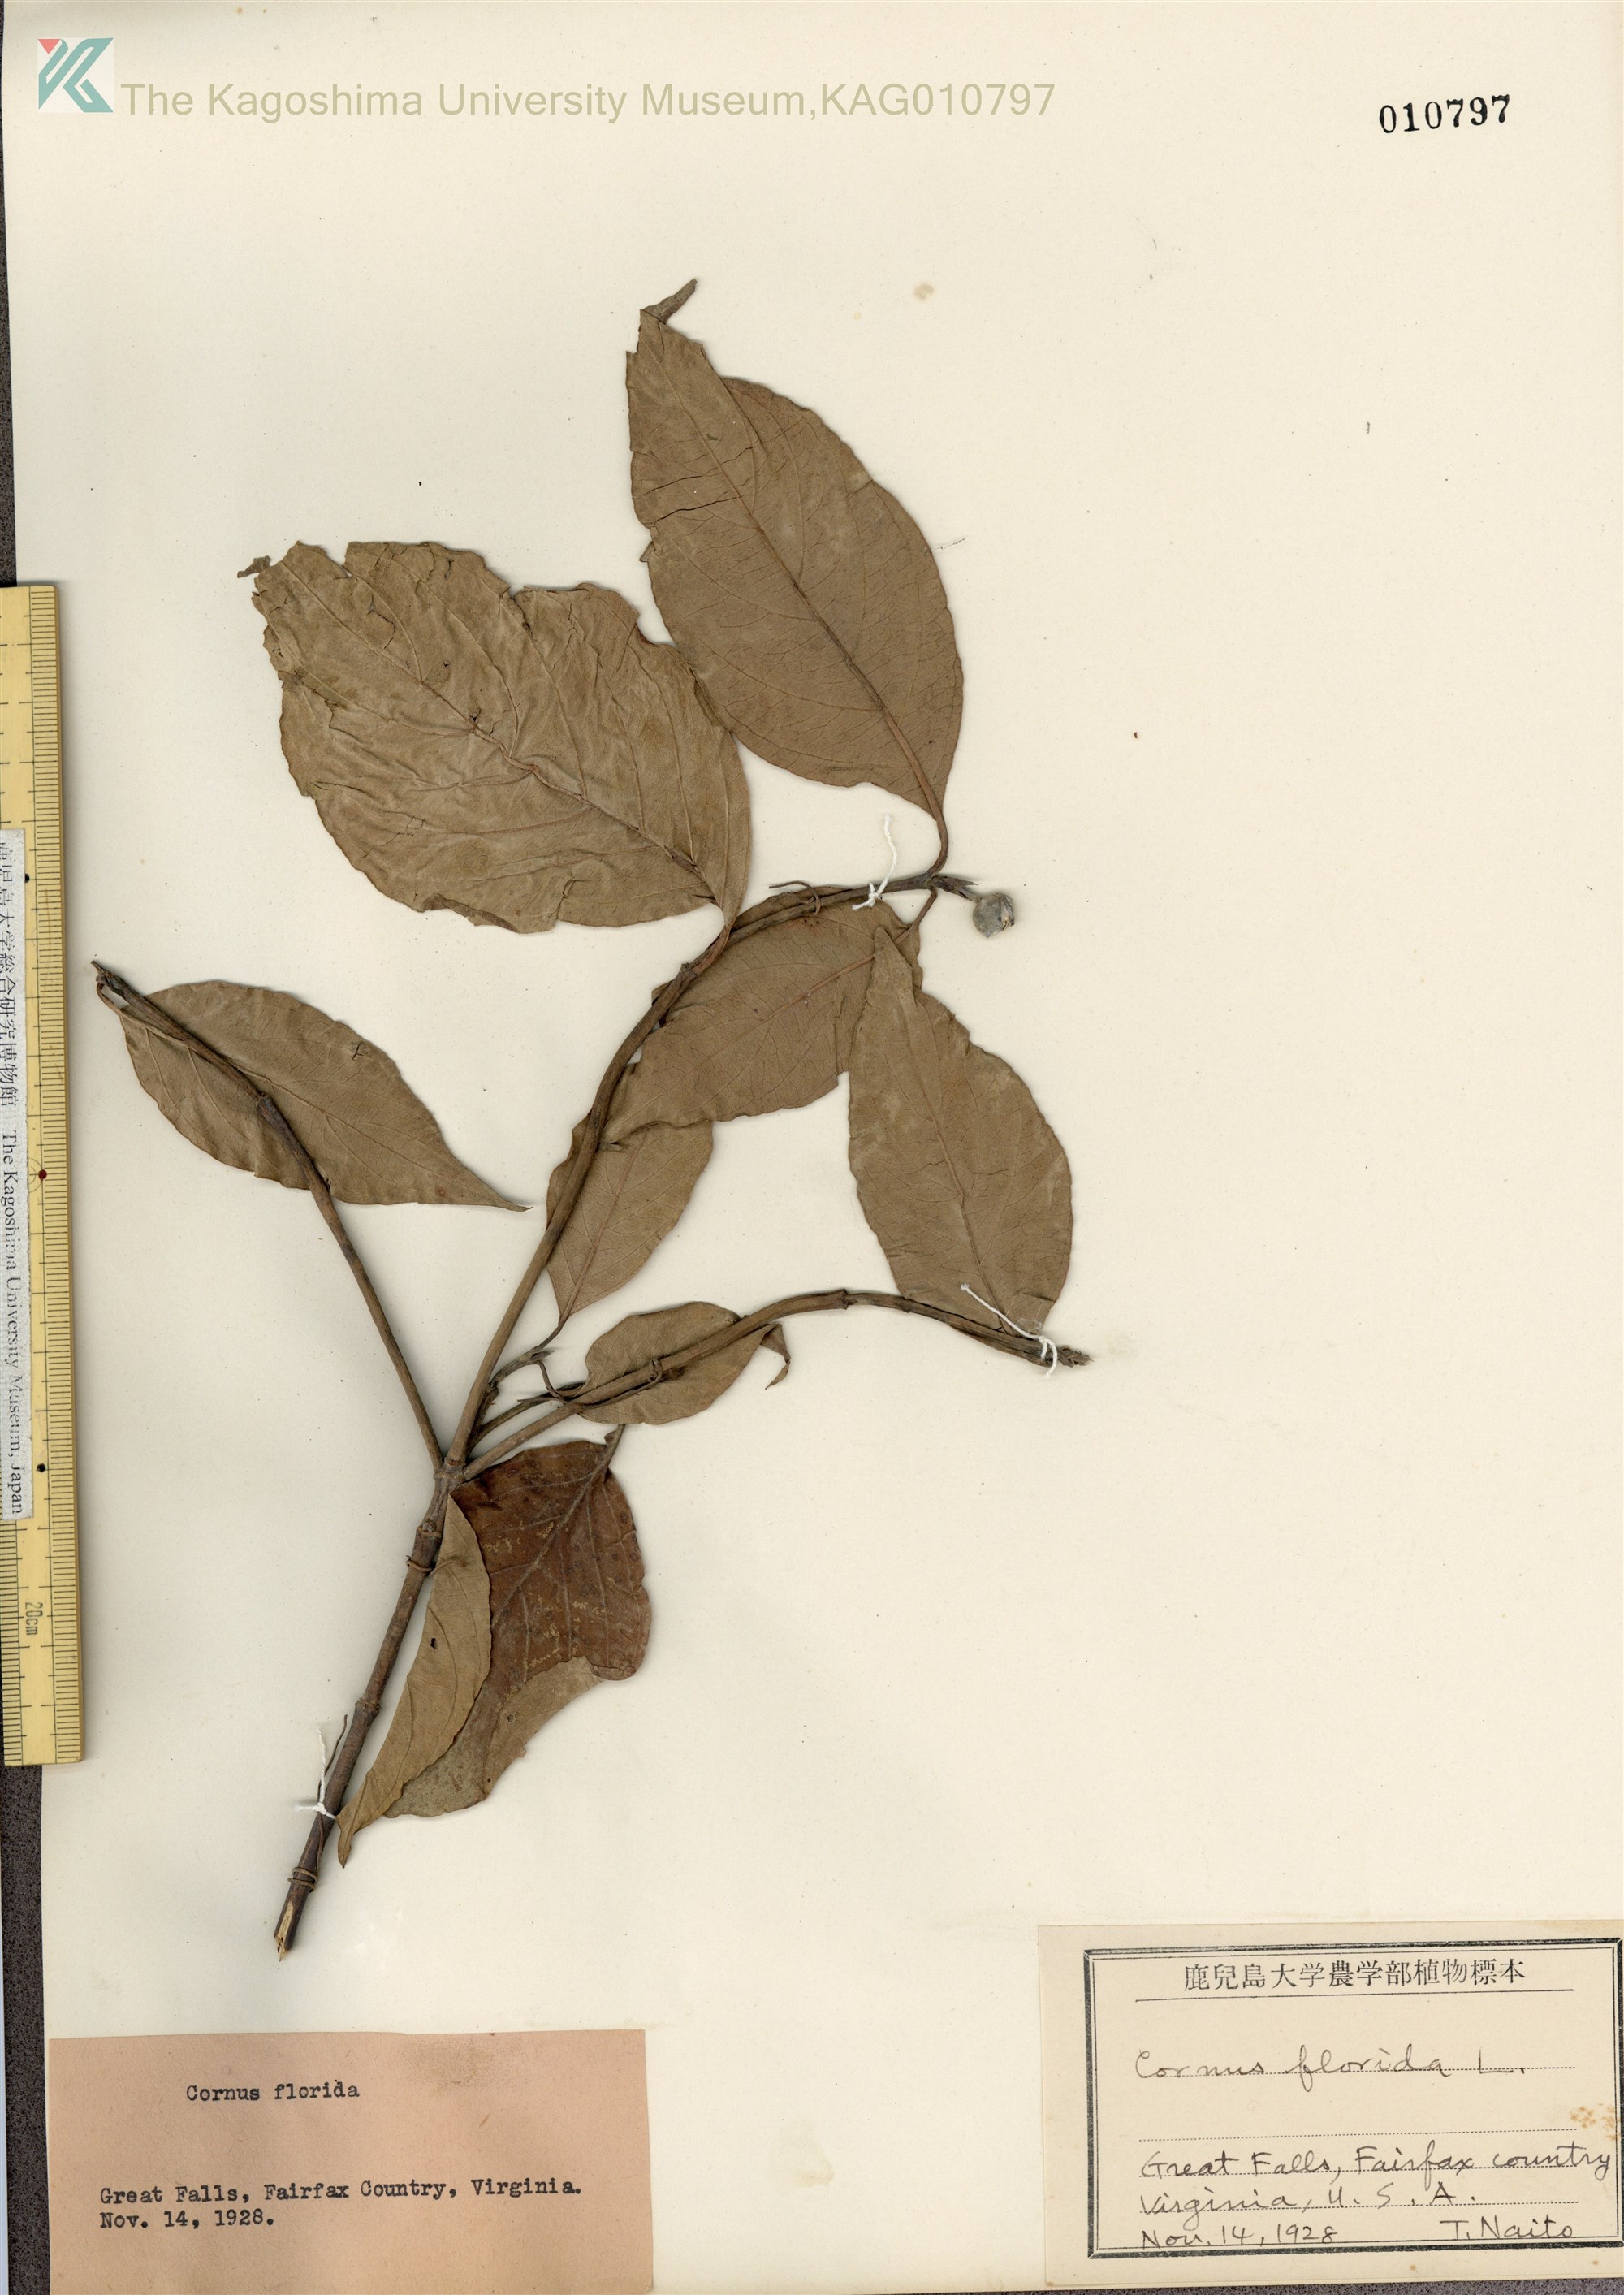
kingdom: Plantae
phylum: Tracheophyta
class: Magnoliopsida
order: Cornales
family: Cornaceae
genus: Cornus
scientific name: Cornus florida
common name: Flowering dogwood
